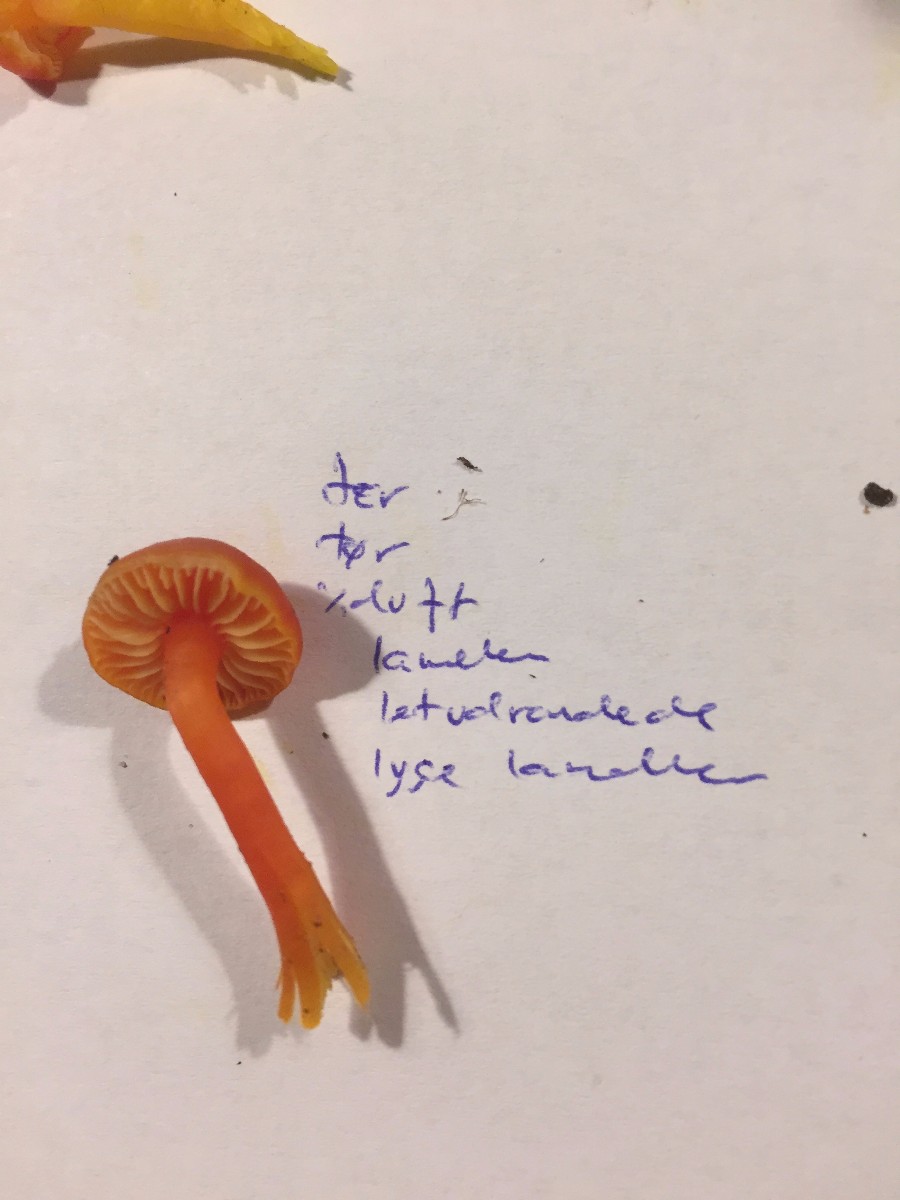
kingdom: Fungi
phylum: Basidiomycota
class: Agaricomycetes
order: Agaricales
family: Hygrophoraceae
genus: Hygrocybe
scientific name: Hygrocybe miniata
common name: mønje-vokshat
